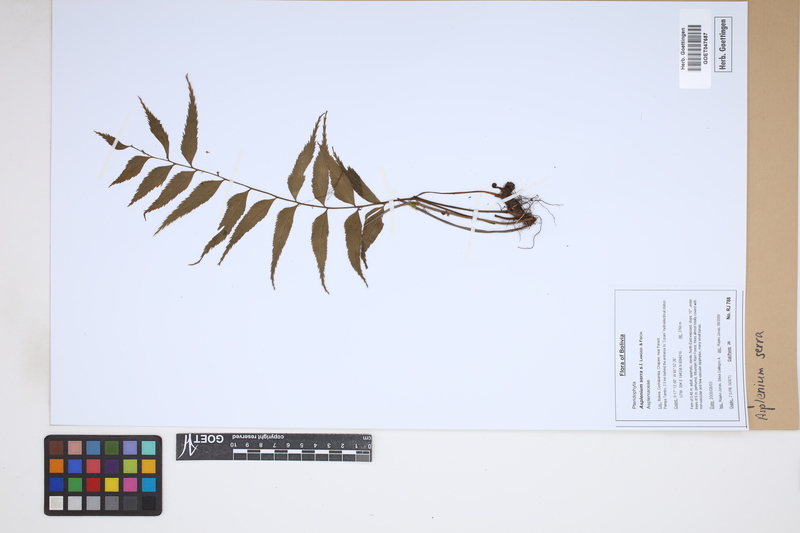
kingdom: Plantae
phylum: Tracheophyta
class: Polypodiopsida
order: Polypodiales
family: Aspleniaceae
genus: Asplenium
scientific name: Asplenium serra
